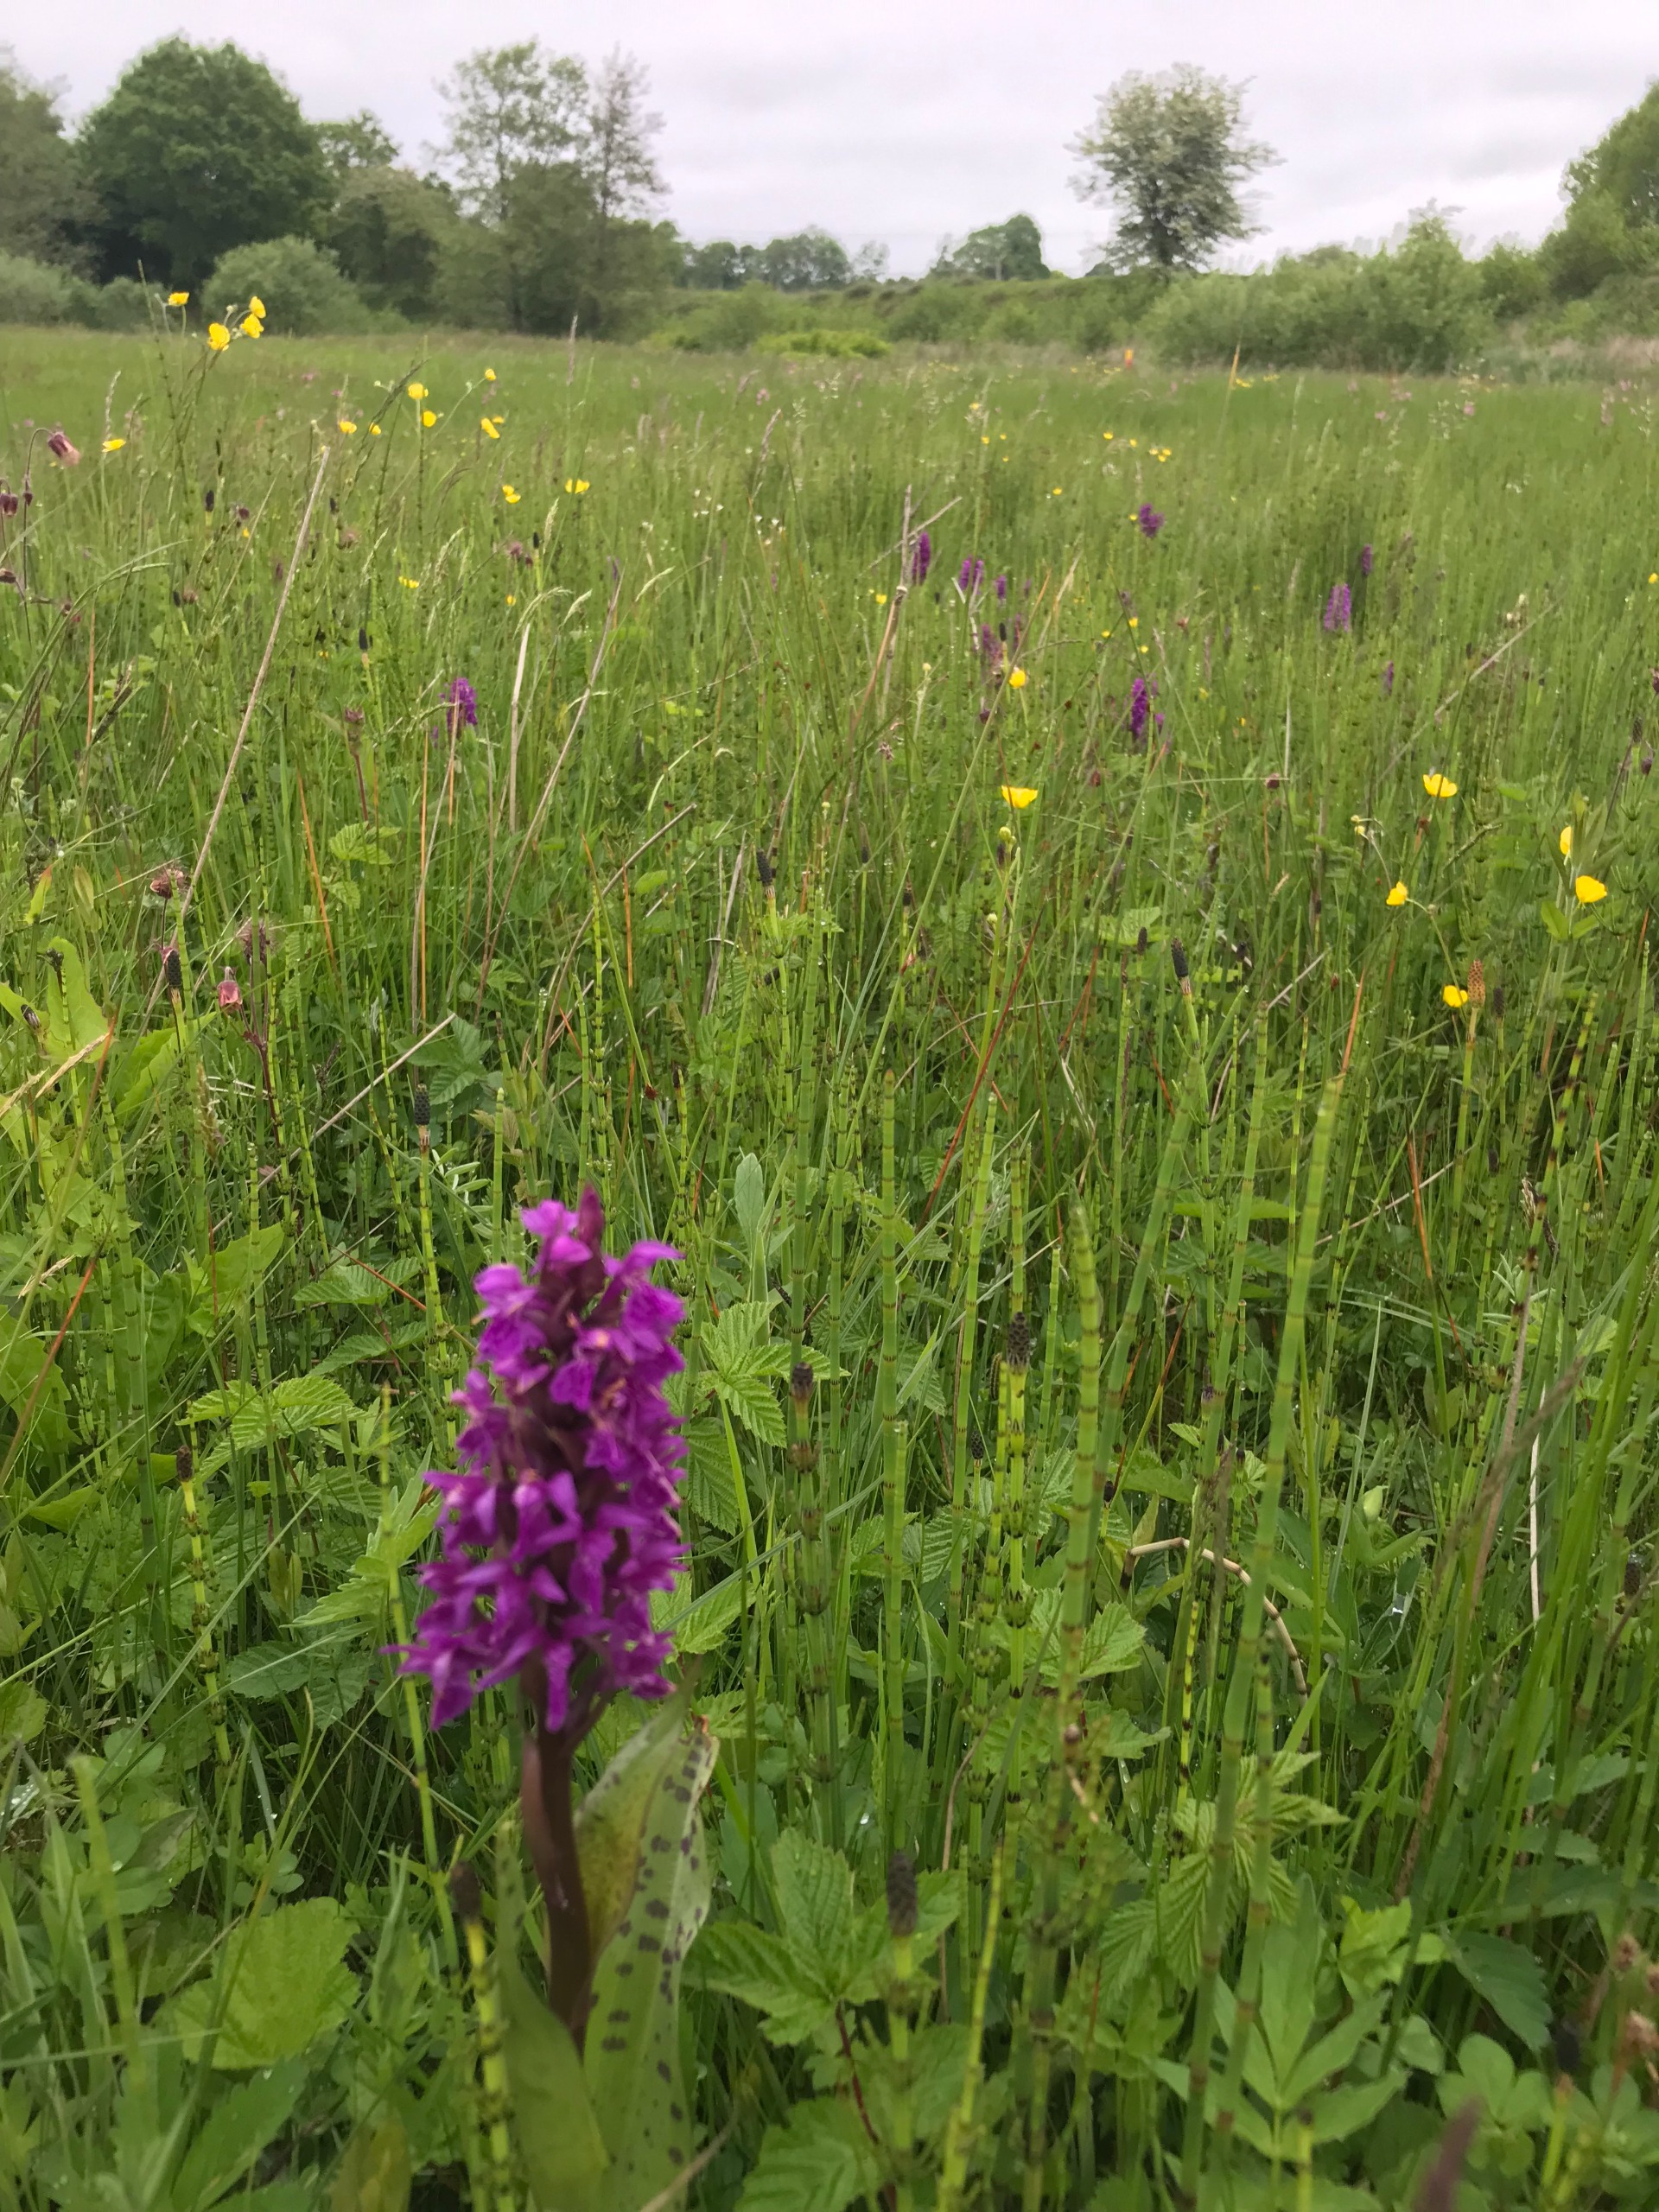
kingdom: Plantae
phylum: Tracheophyta
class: Liliopsida
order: Asparagales
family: Orchidaceae
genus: Dactylorhiza
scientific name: Dactylorhiza majalis
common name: Maj-gøgeurt
